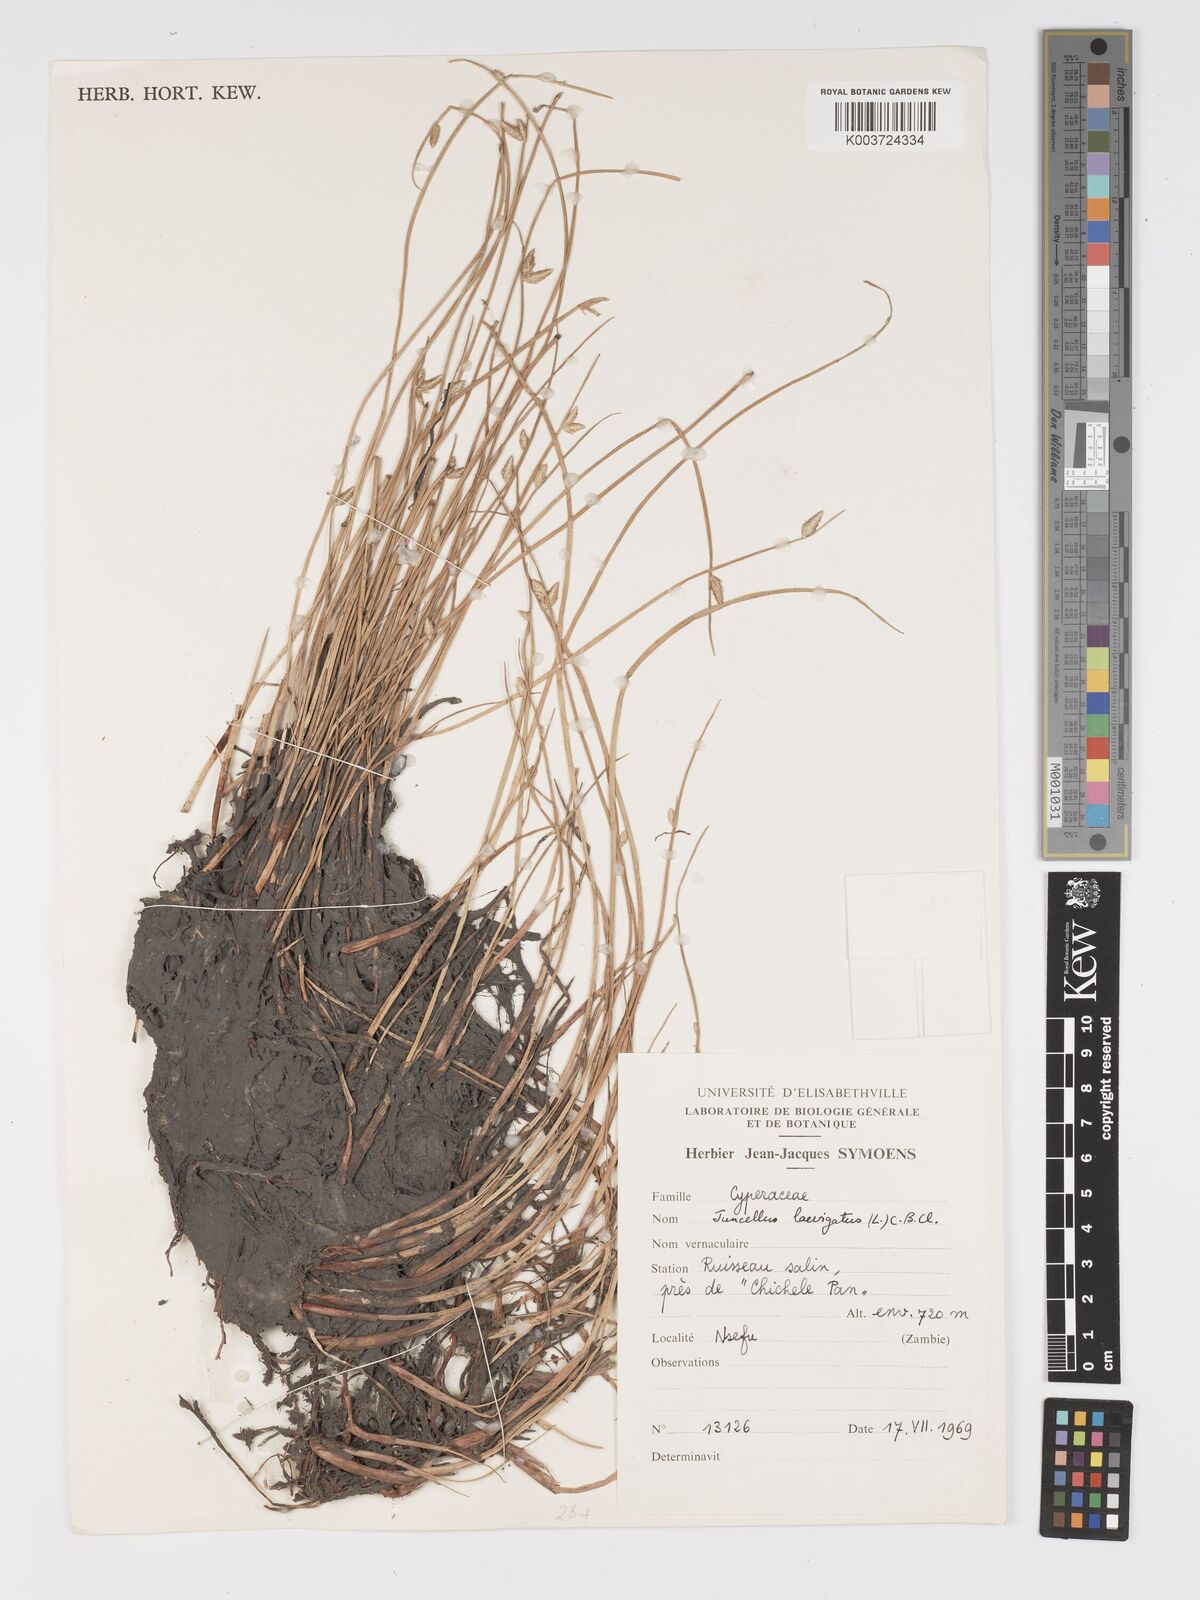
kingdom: Plantae
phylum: Tracheophyta
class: Liliopsida
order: Poales
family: Cyperaceae
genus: Cyperus
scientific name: Cyperus laevigatus
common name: Smooth flat sedge
